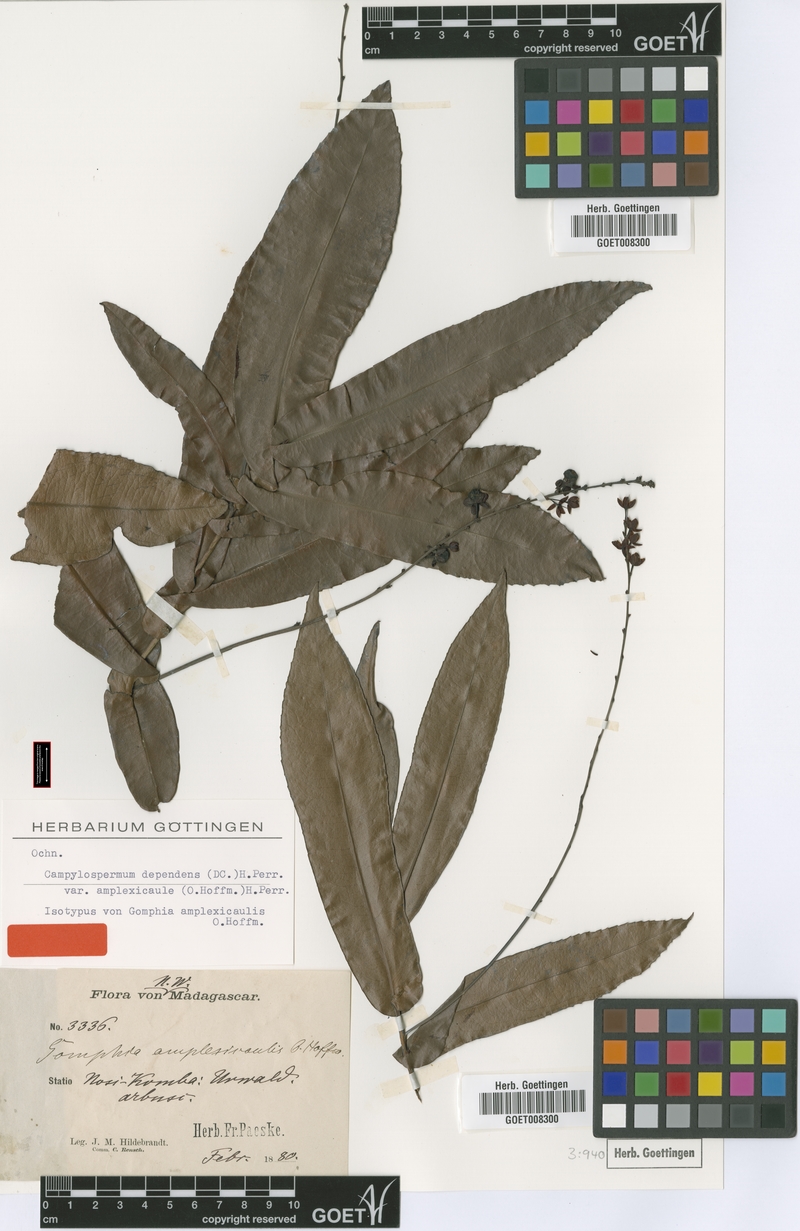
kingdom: Plantae
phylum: Tracheophyta
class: Magnoliopsida
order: Malpighiales
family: Ochnaceae
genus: Campylospermum
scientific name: Campylospermum dependens
